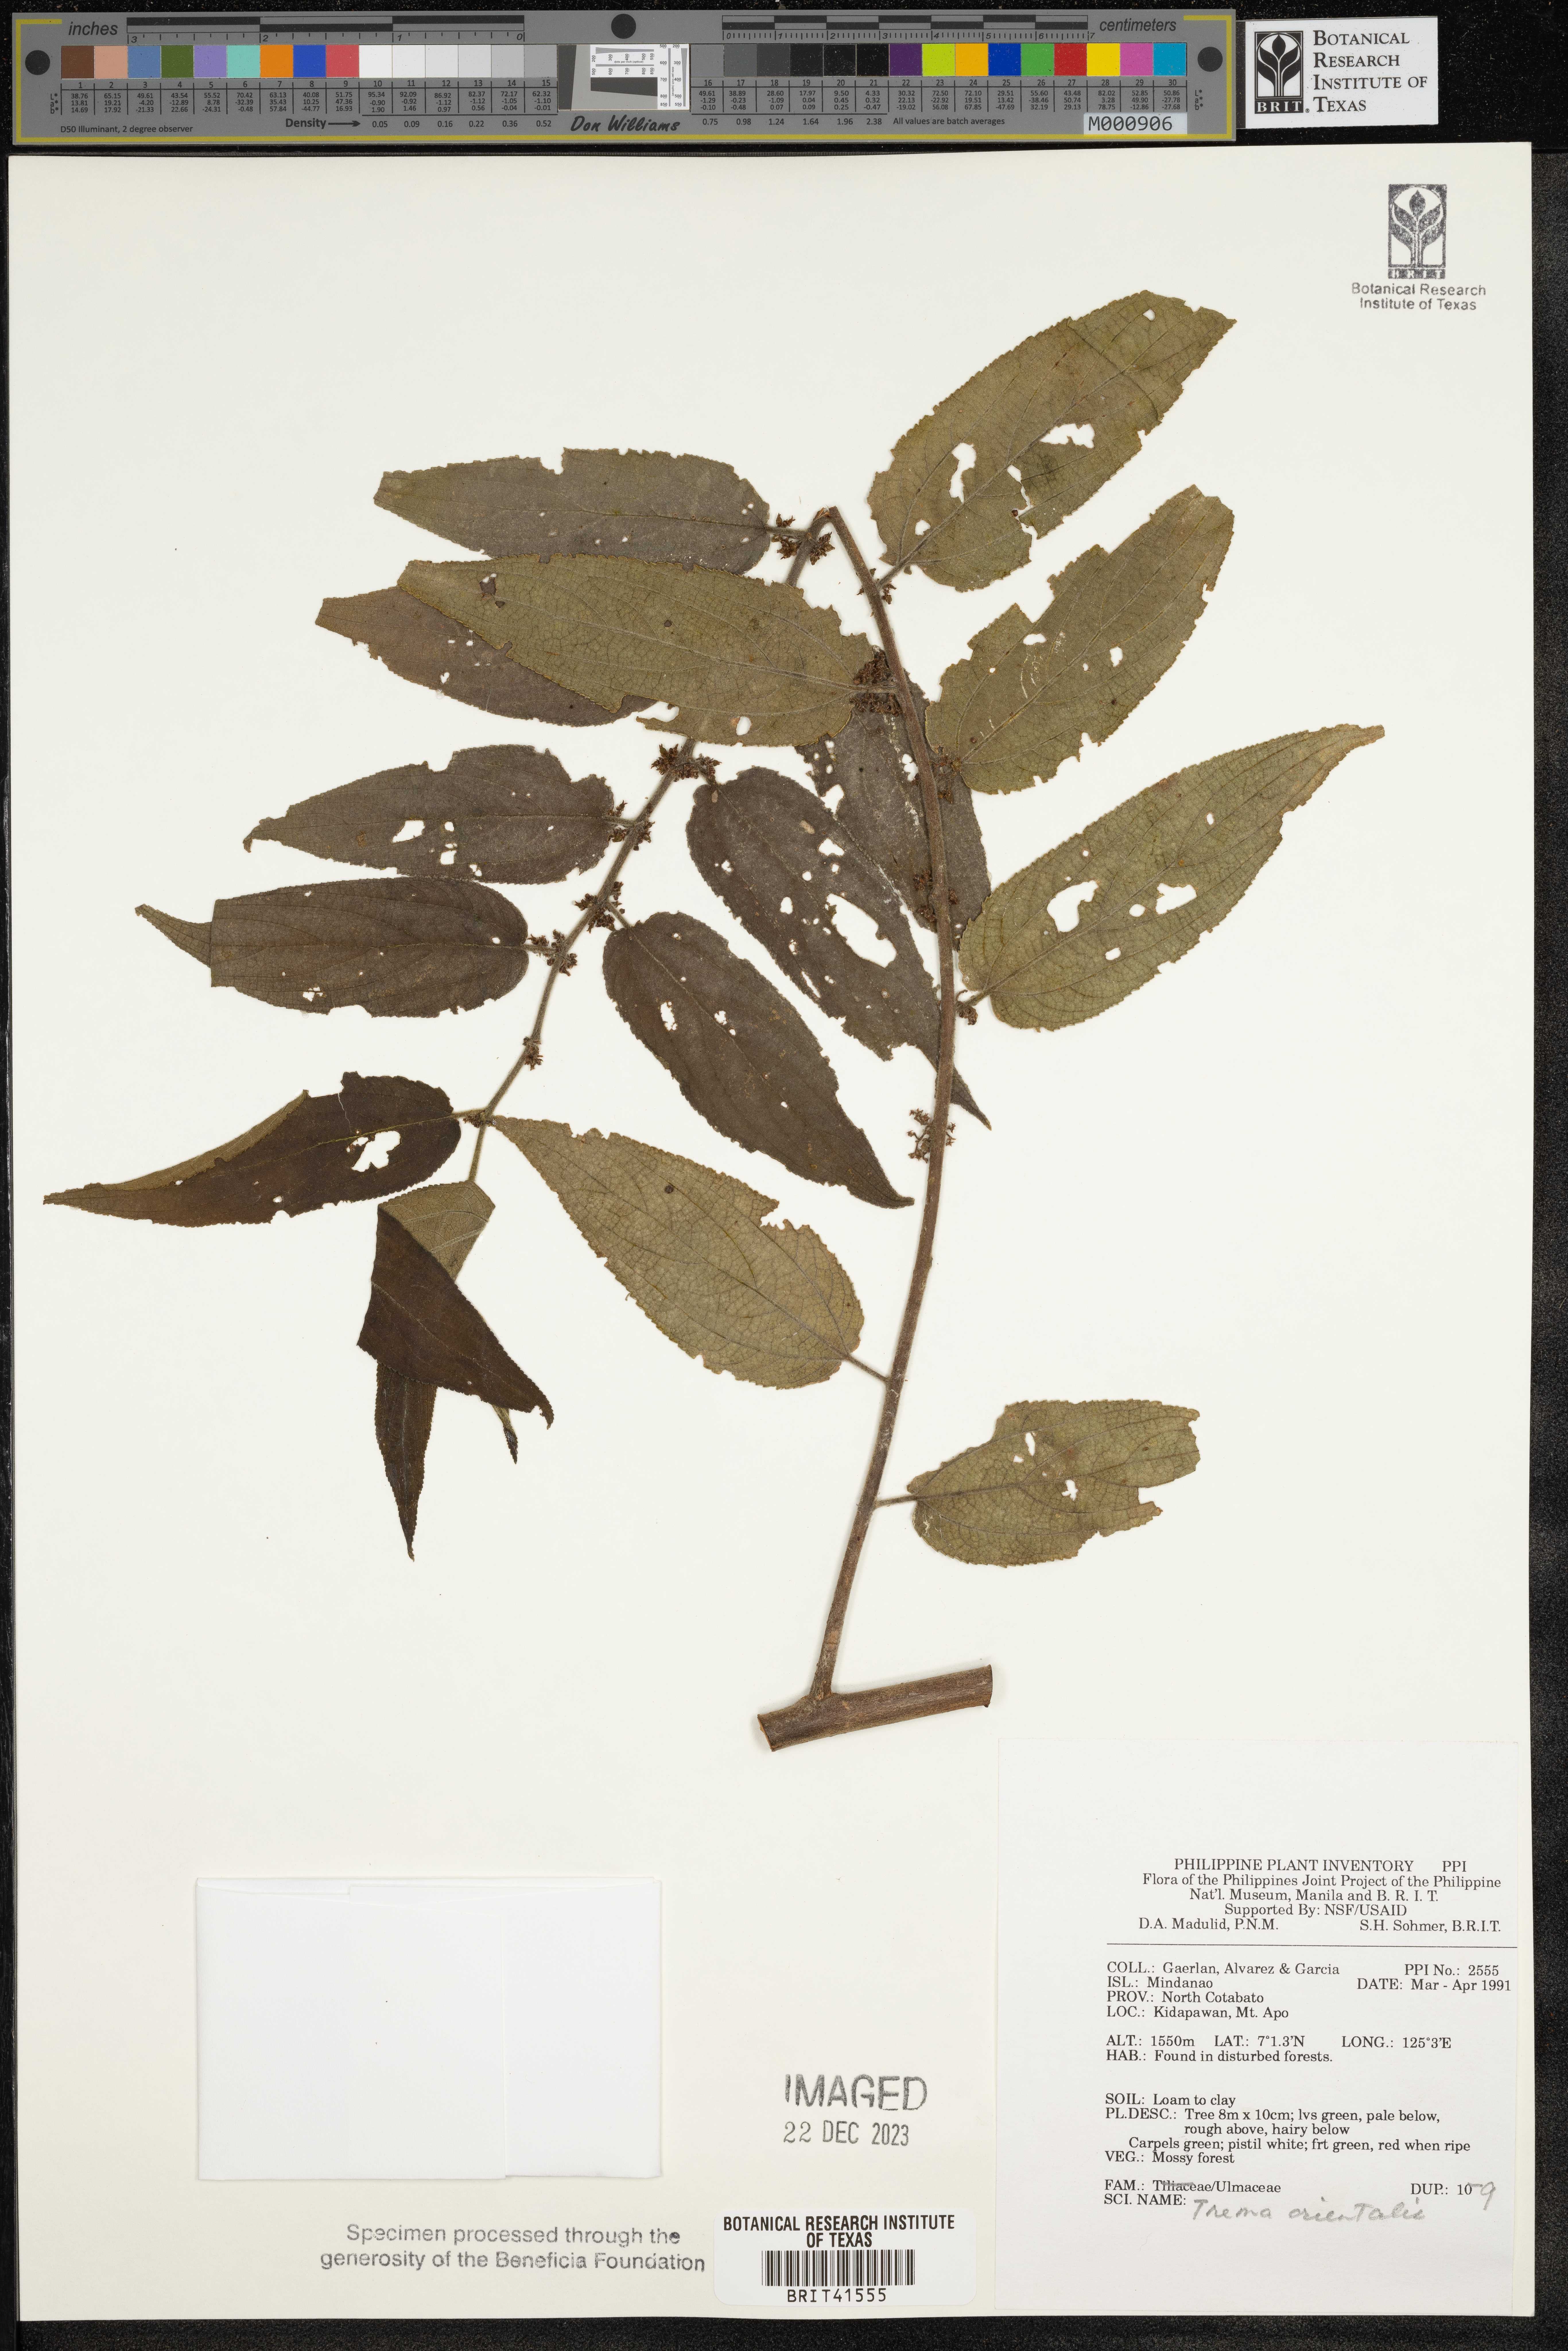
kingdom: Plantae
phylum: Tracheophyta
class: Magnoliopsida
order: Rosales
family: Cannabaceae
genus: Trema
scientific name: Trema orientale
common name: Indian charcoal tree
